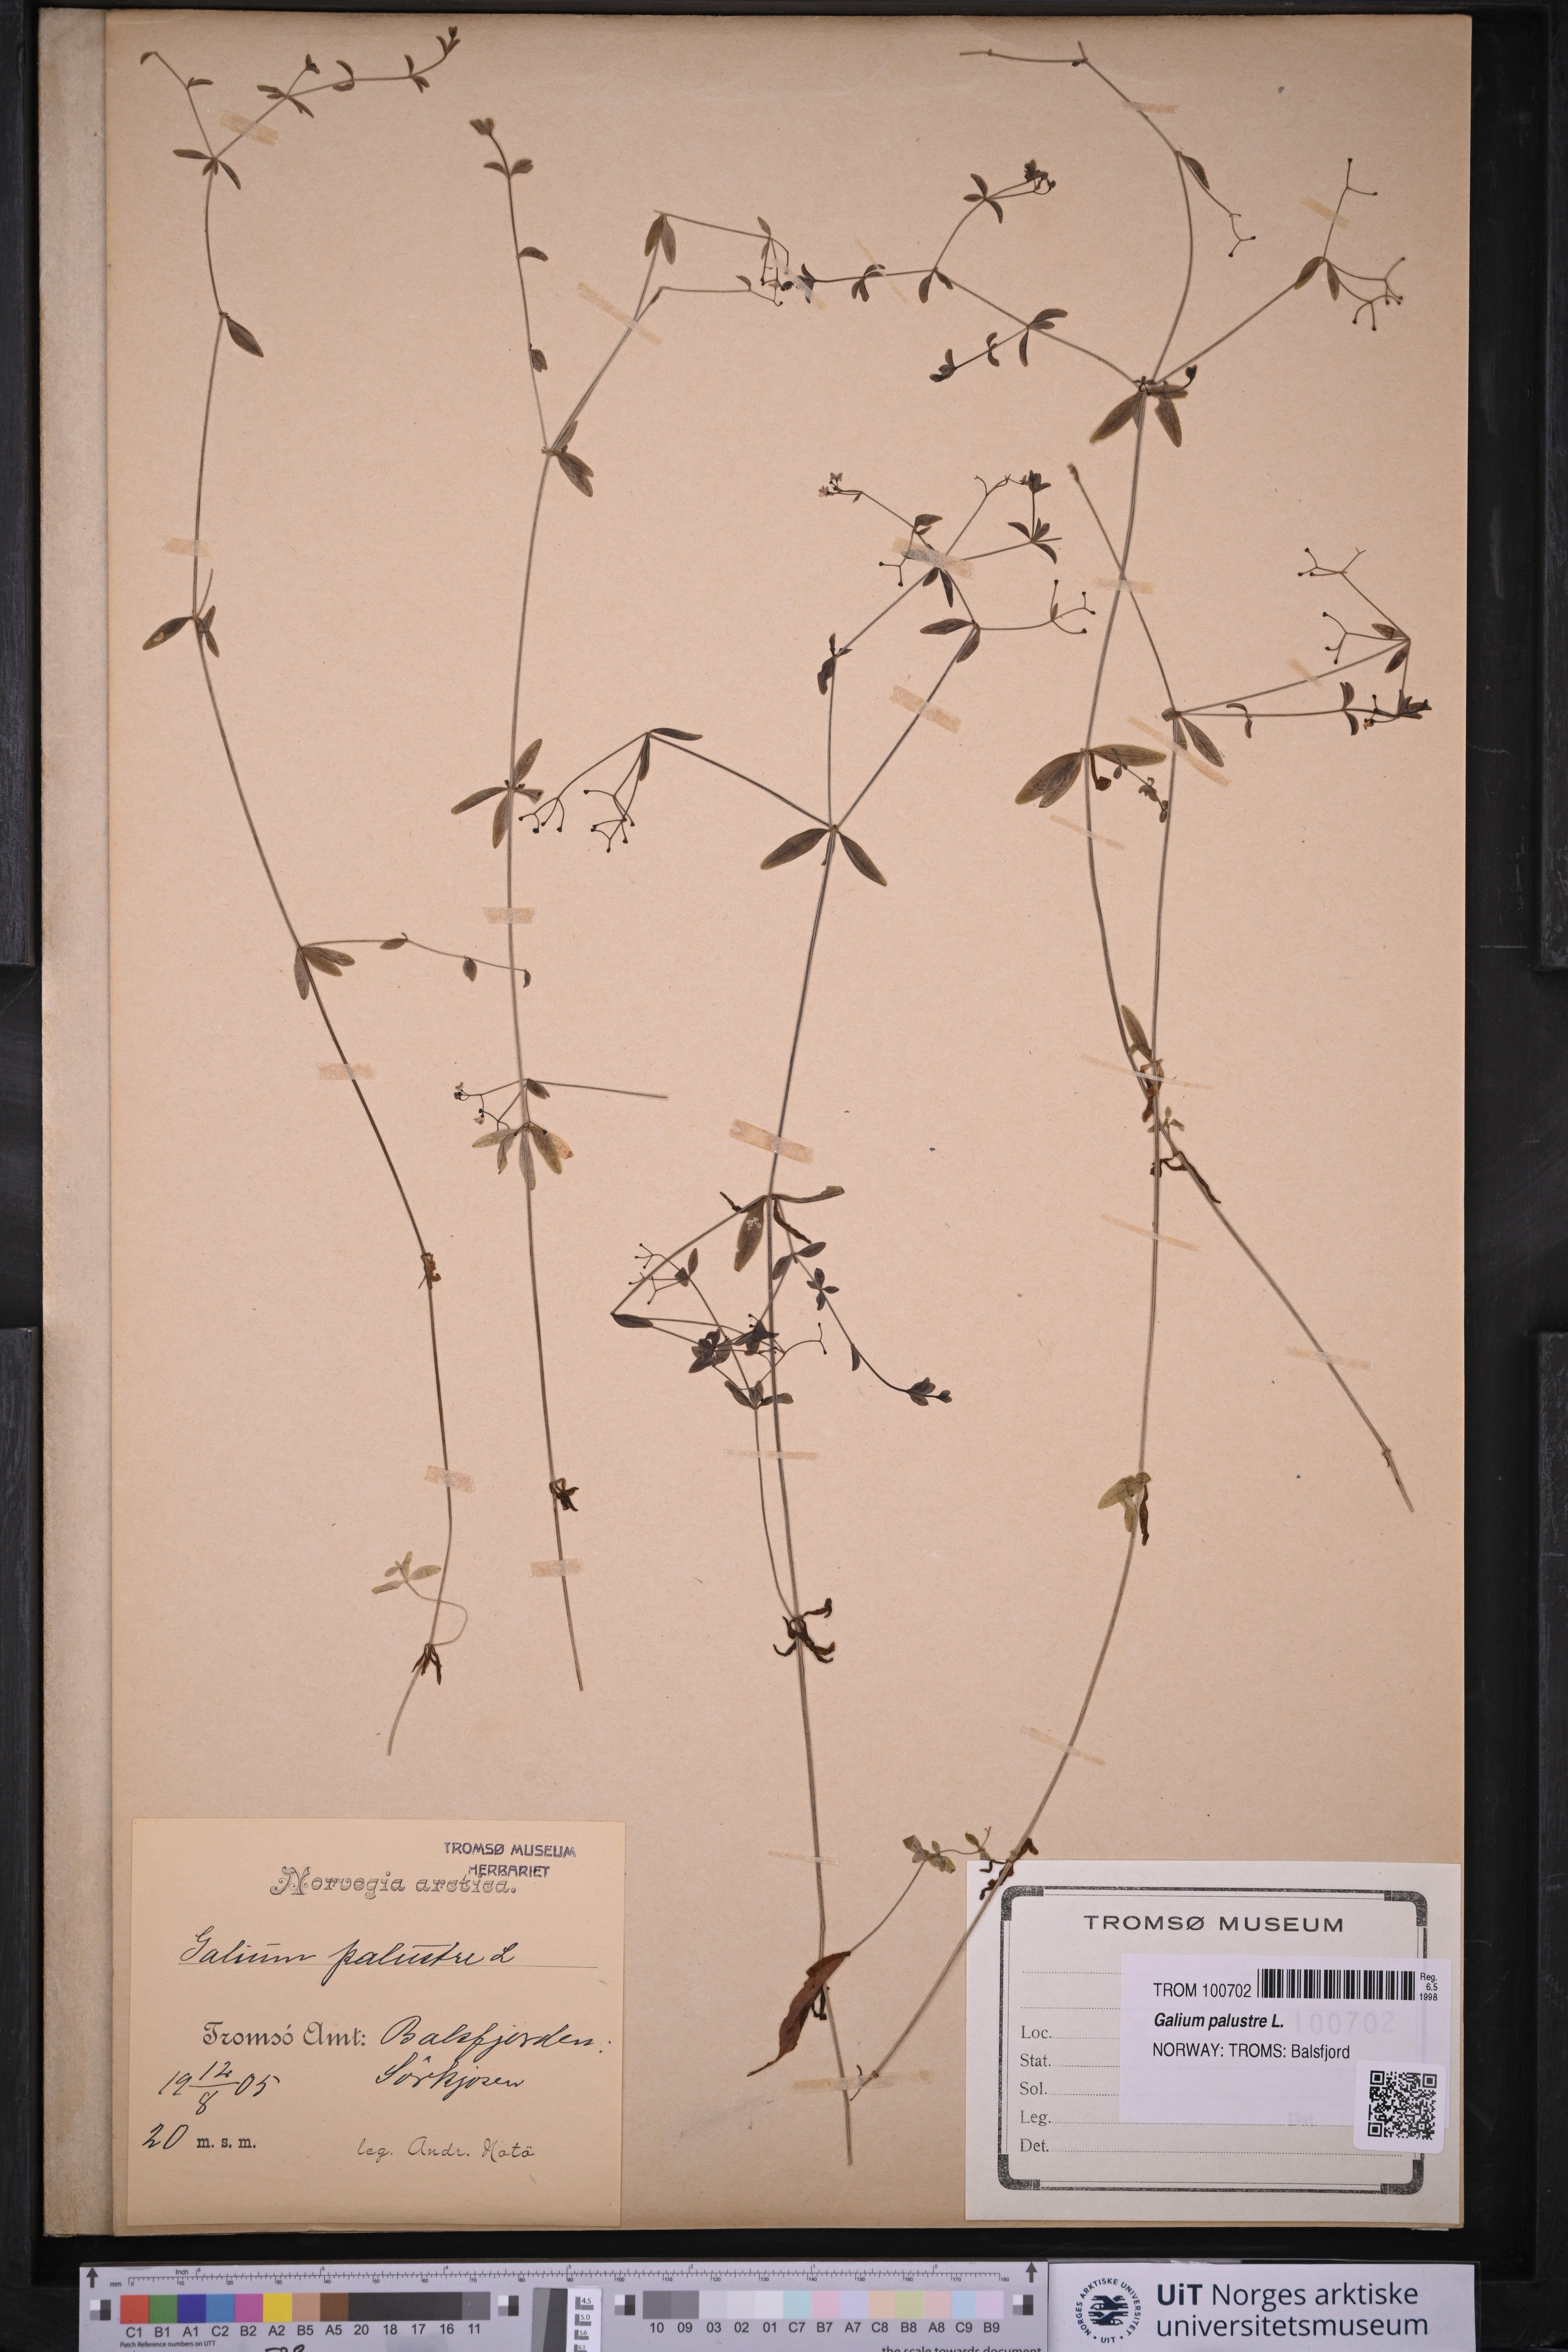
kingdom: Plantae
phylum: Tracheophyta
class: Magnoliopsida
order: Gentianales
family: Rubiaceae
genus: Galium
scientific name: Galium palustre
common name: Common marsh-bedstraw
